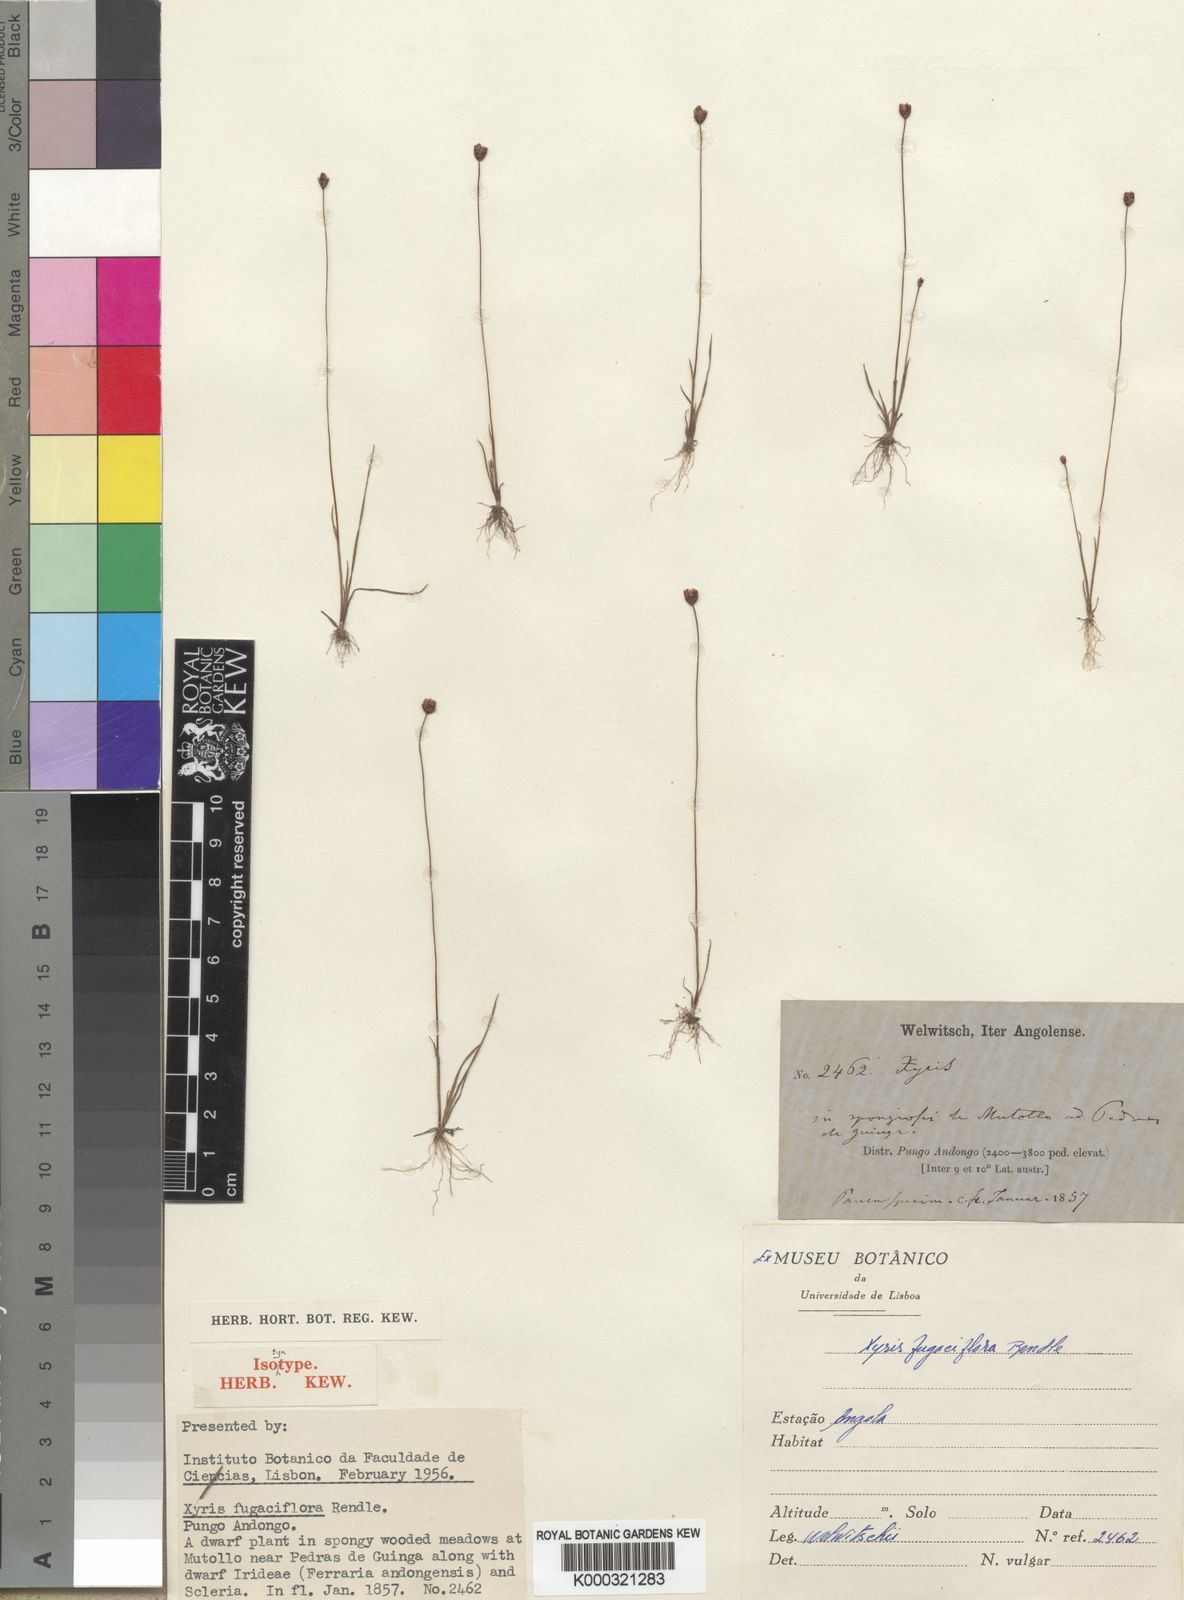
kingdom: Plantae
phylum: Tracheophyta
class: Liliopsida
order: Poales
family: Xyridaceae
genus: Xyris
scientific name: Xyris fugaciflora
